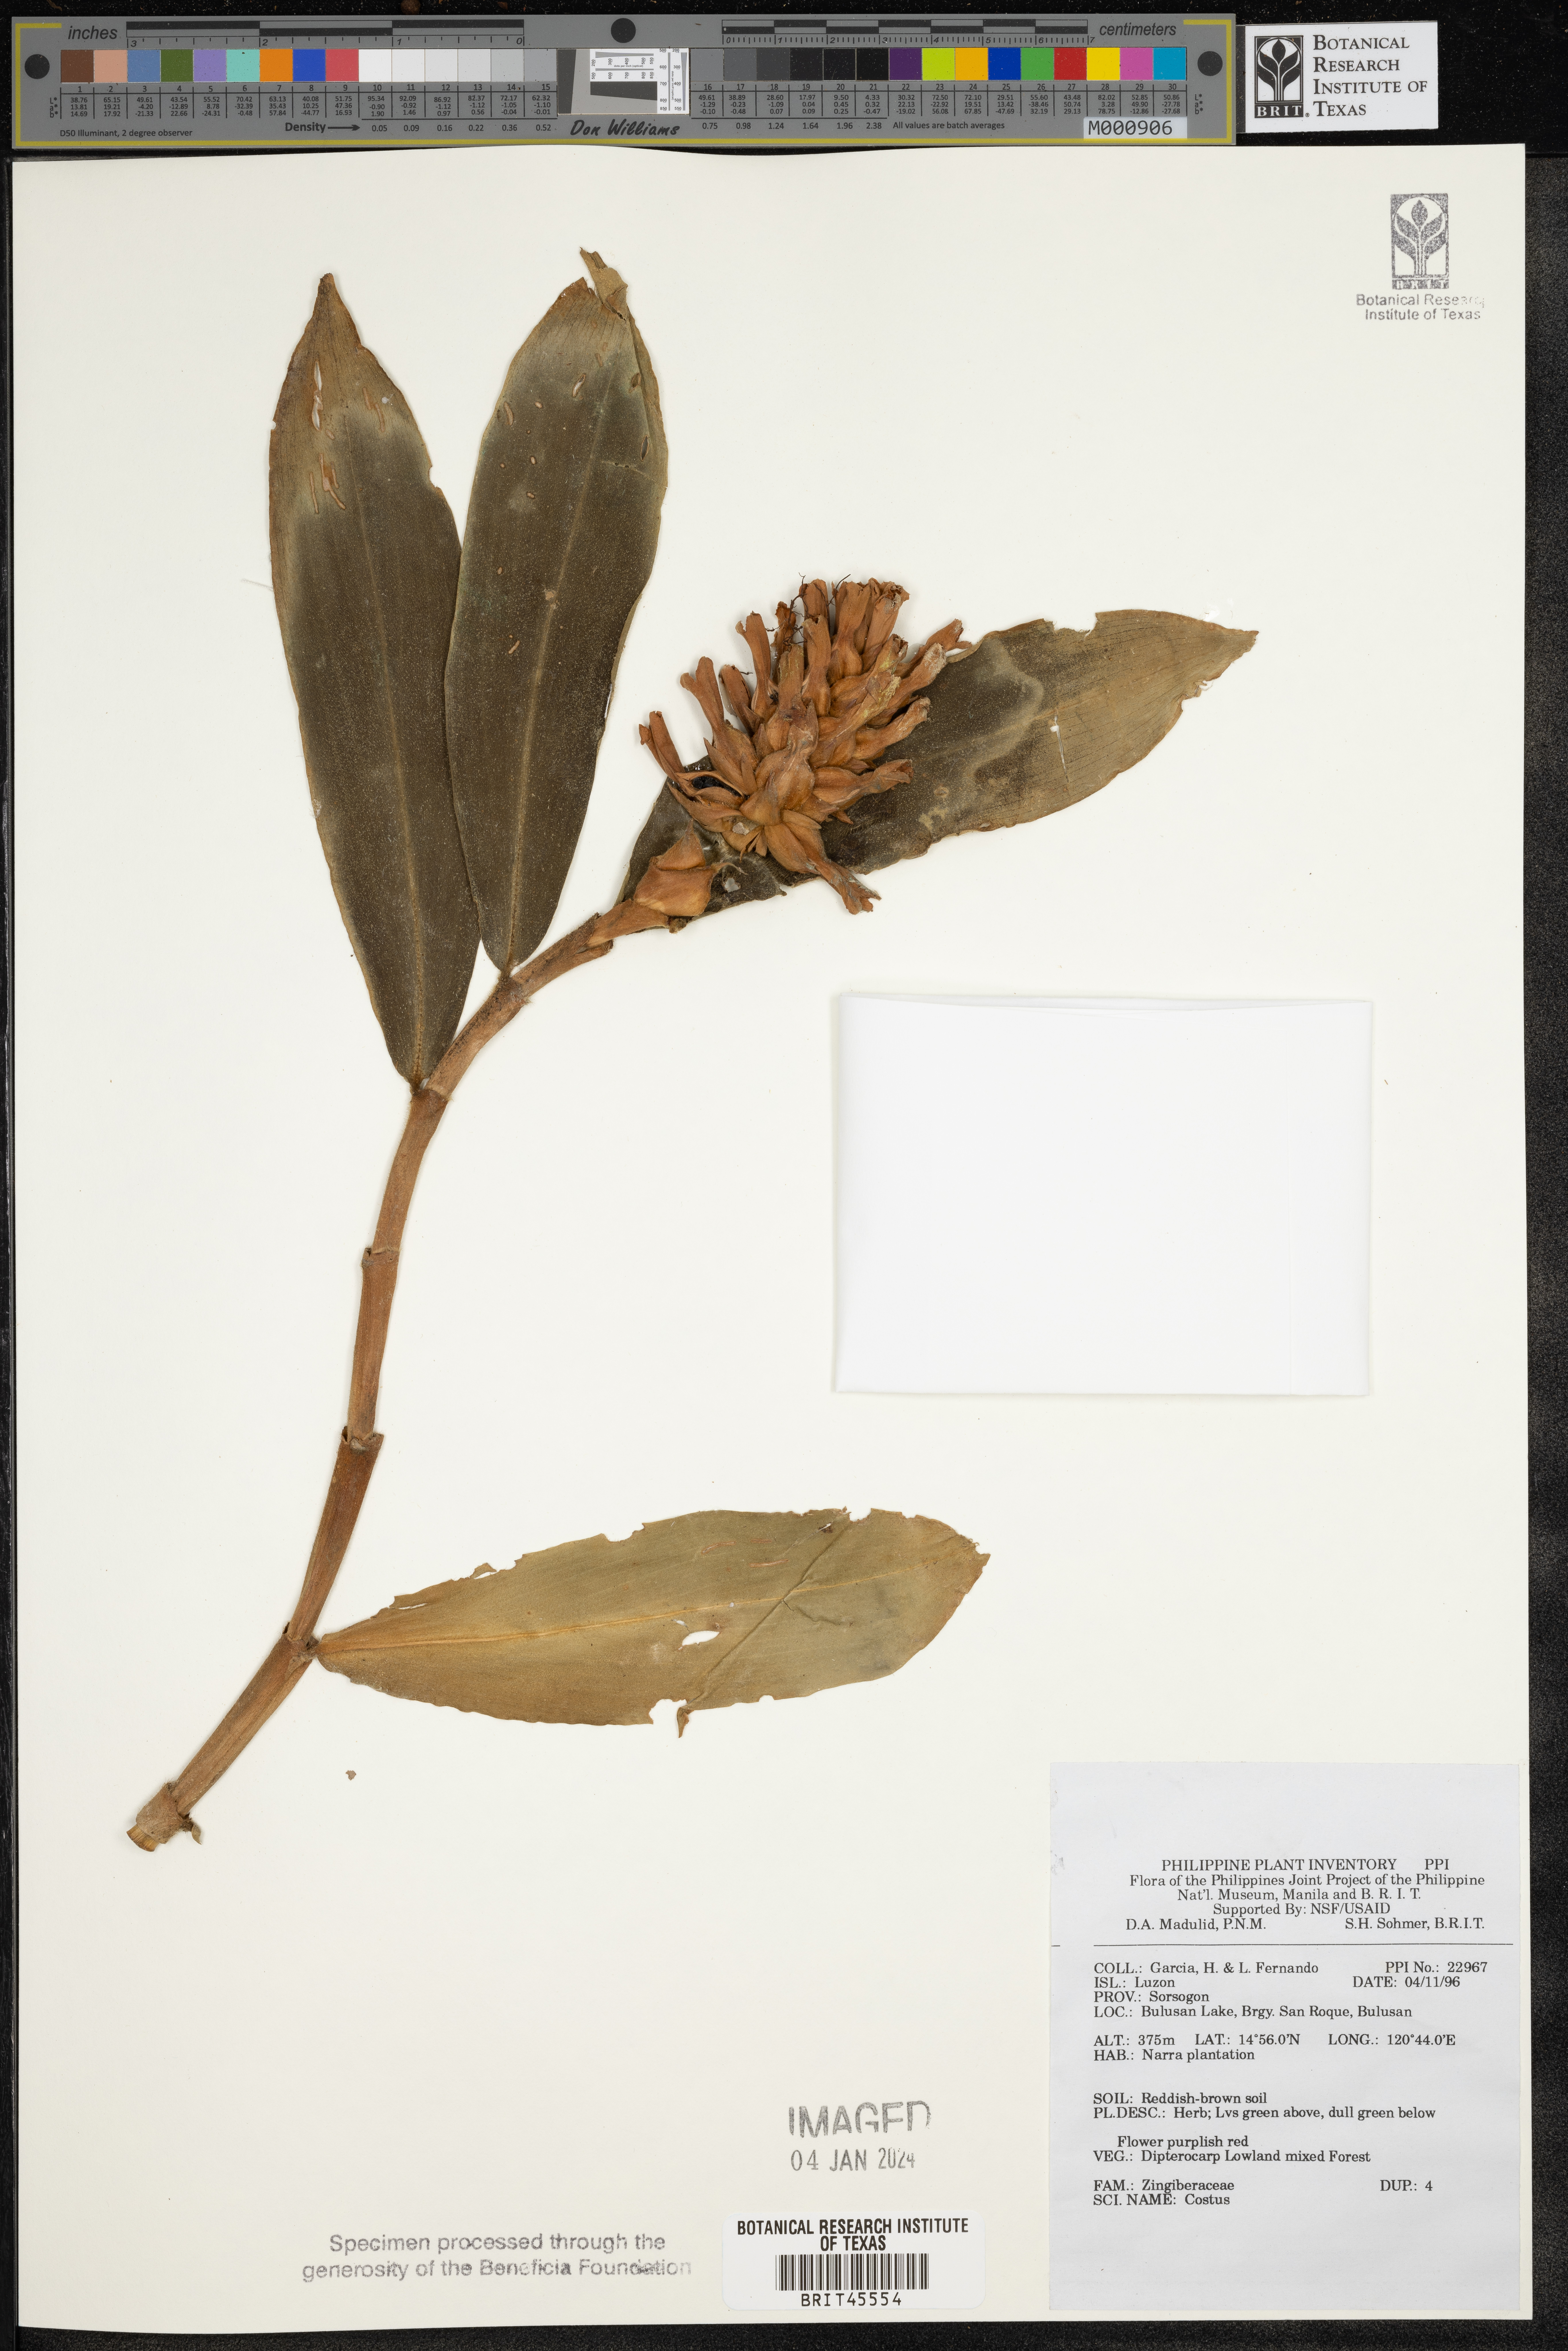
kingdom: Plantae
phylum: Tracheophyta
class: Liliopsida
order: Zingiberales
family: Costaceae
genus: Costus
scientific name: Costus
